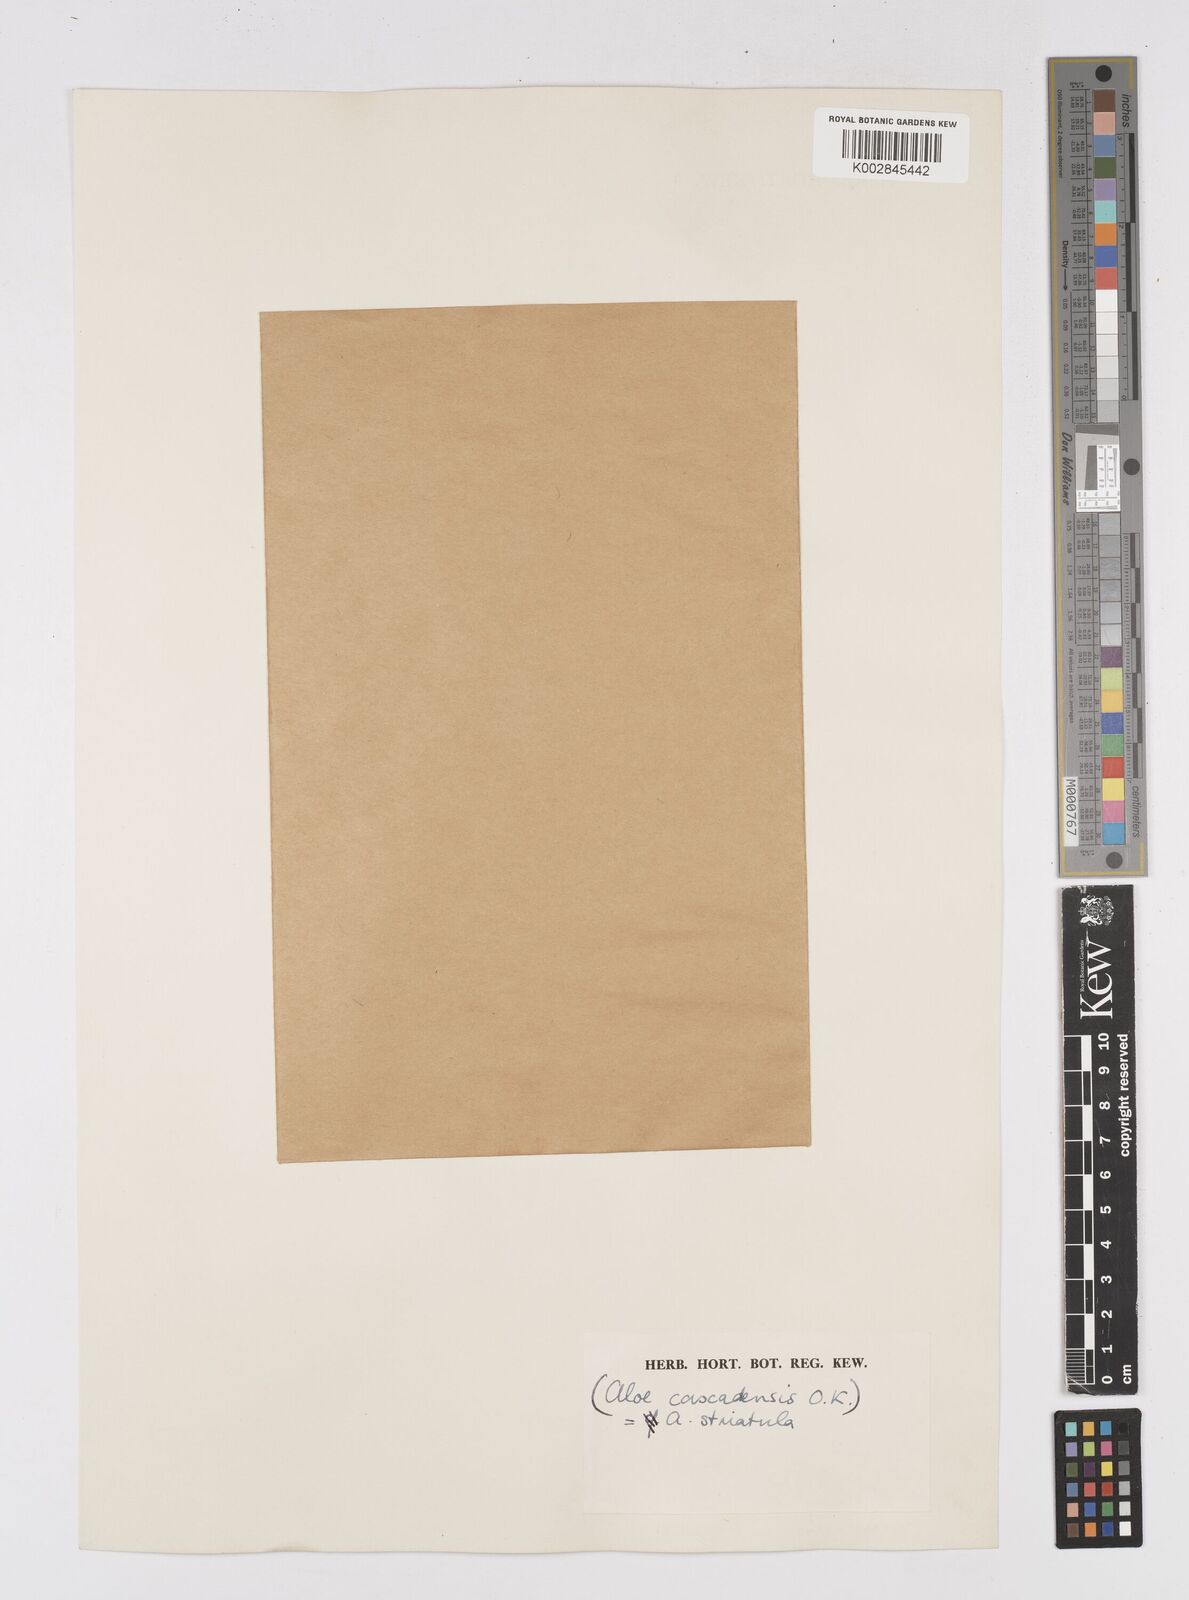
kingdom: Plantae
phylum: Tracheophyta
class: Liliopsida
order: Asparagales
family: Asphodelaceae
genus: Aloiampelos
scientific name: Aloiampelos striatula
